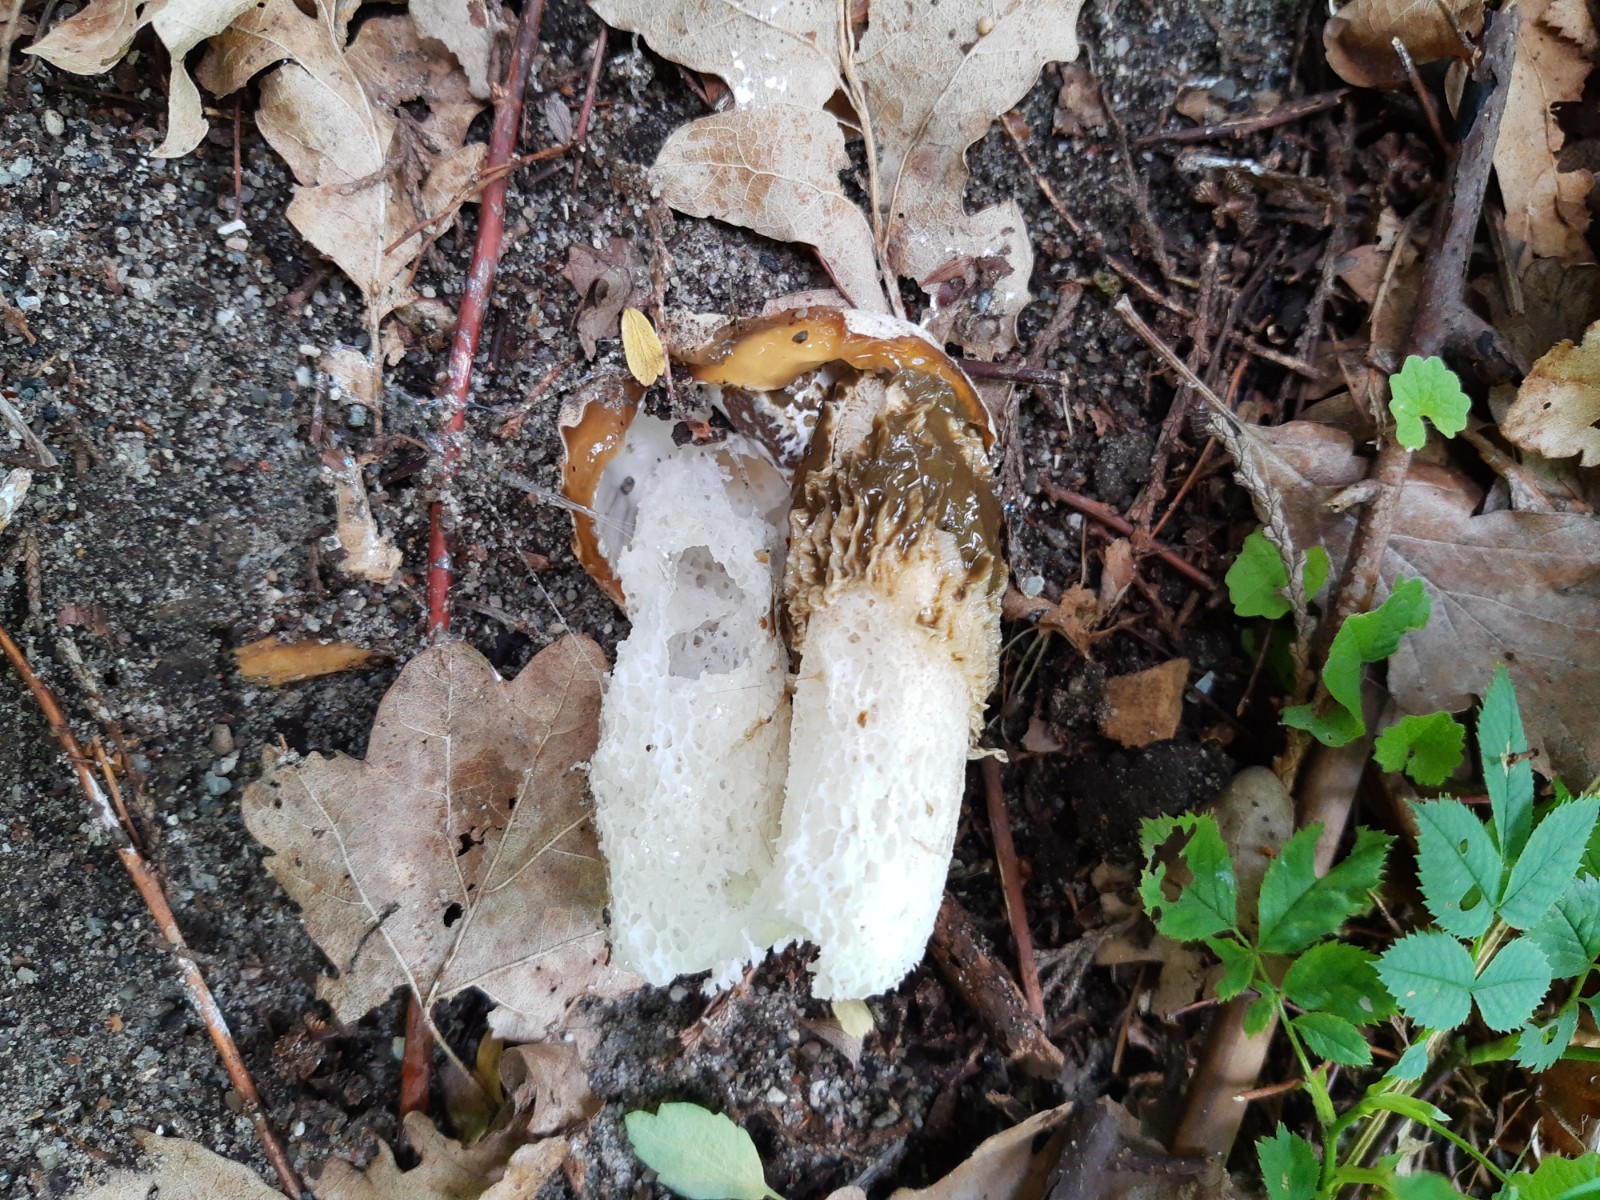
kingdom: Fungi
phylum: Basidiomycota
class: Agaricomycetes
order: Phallales
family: Phallaceae
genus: Phallus
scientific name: Phallus impudicus
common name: almindelig stinksvamp
